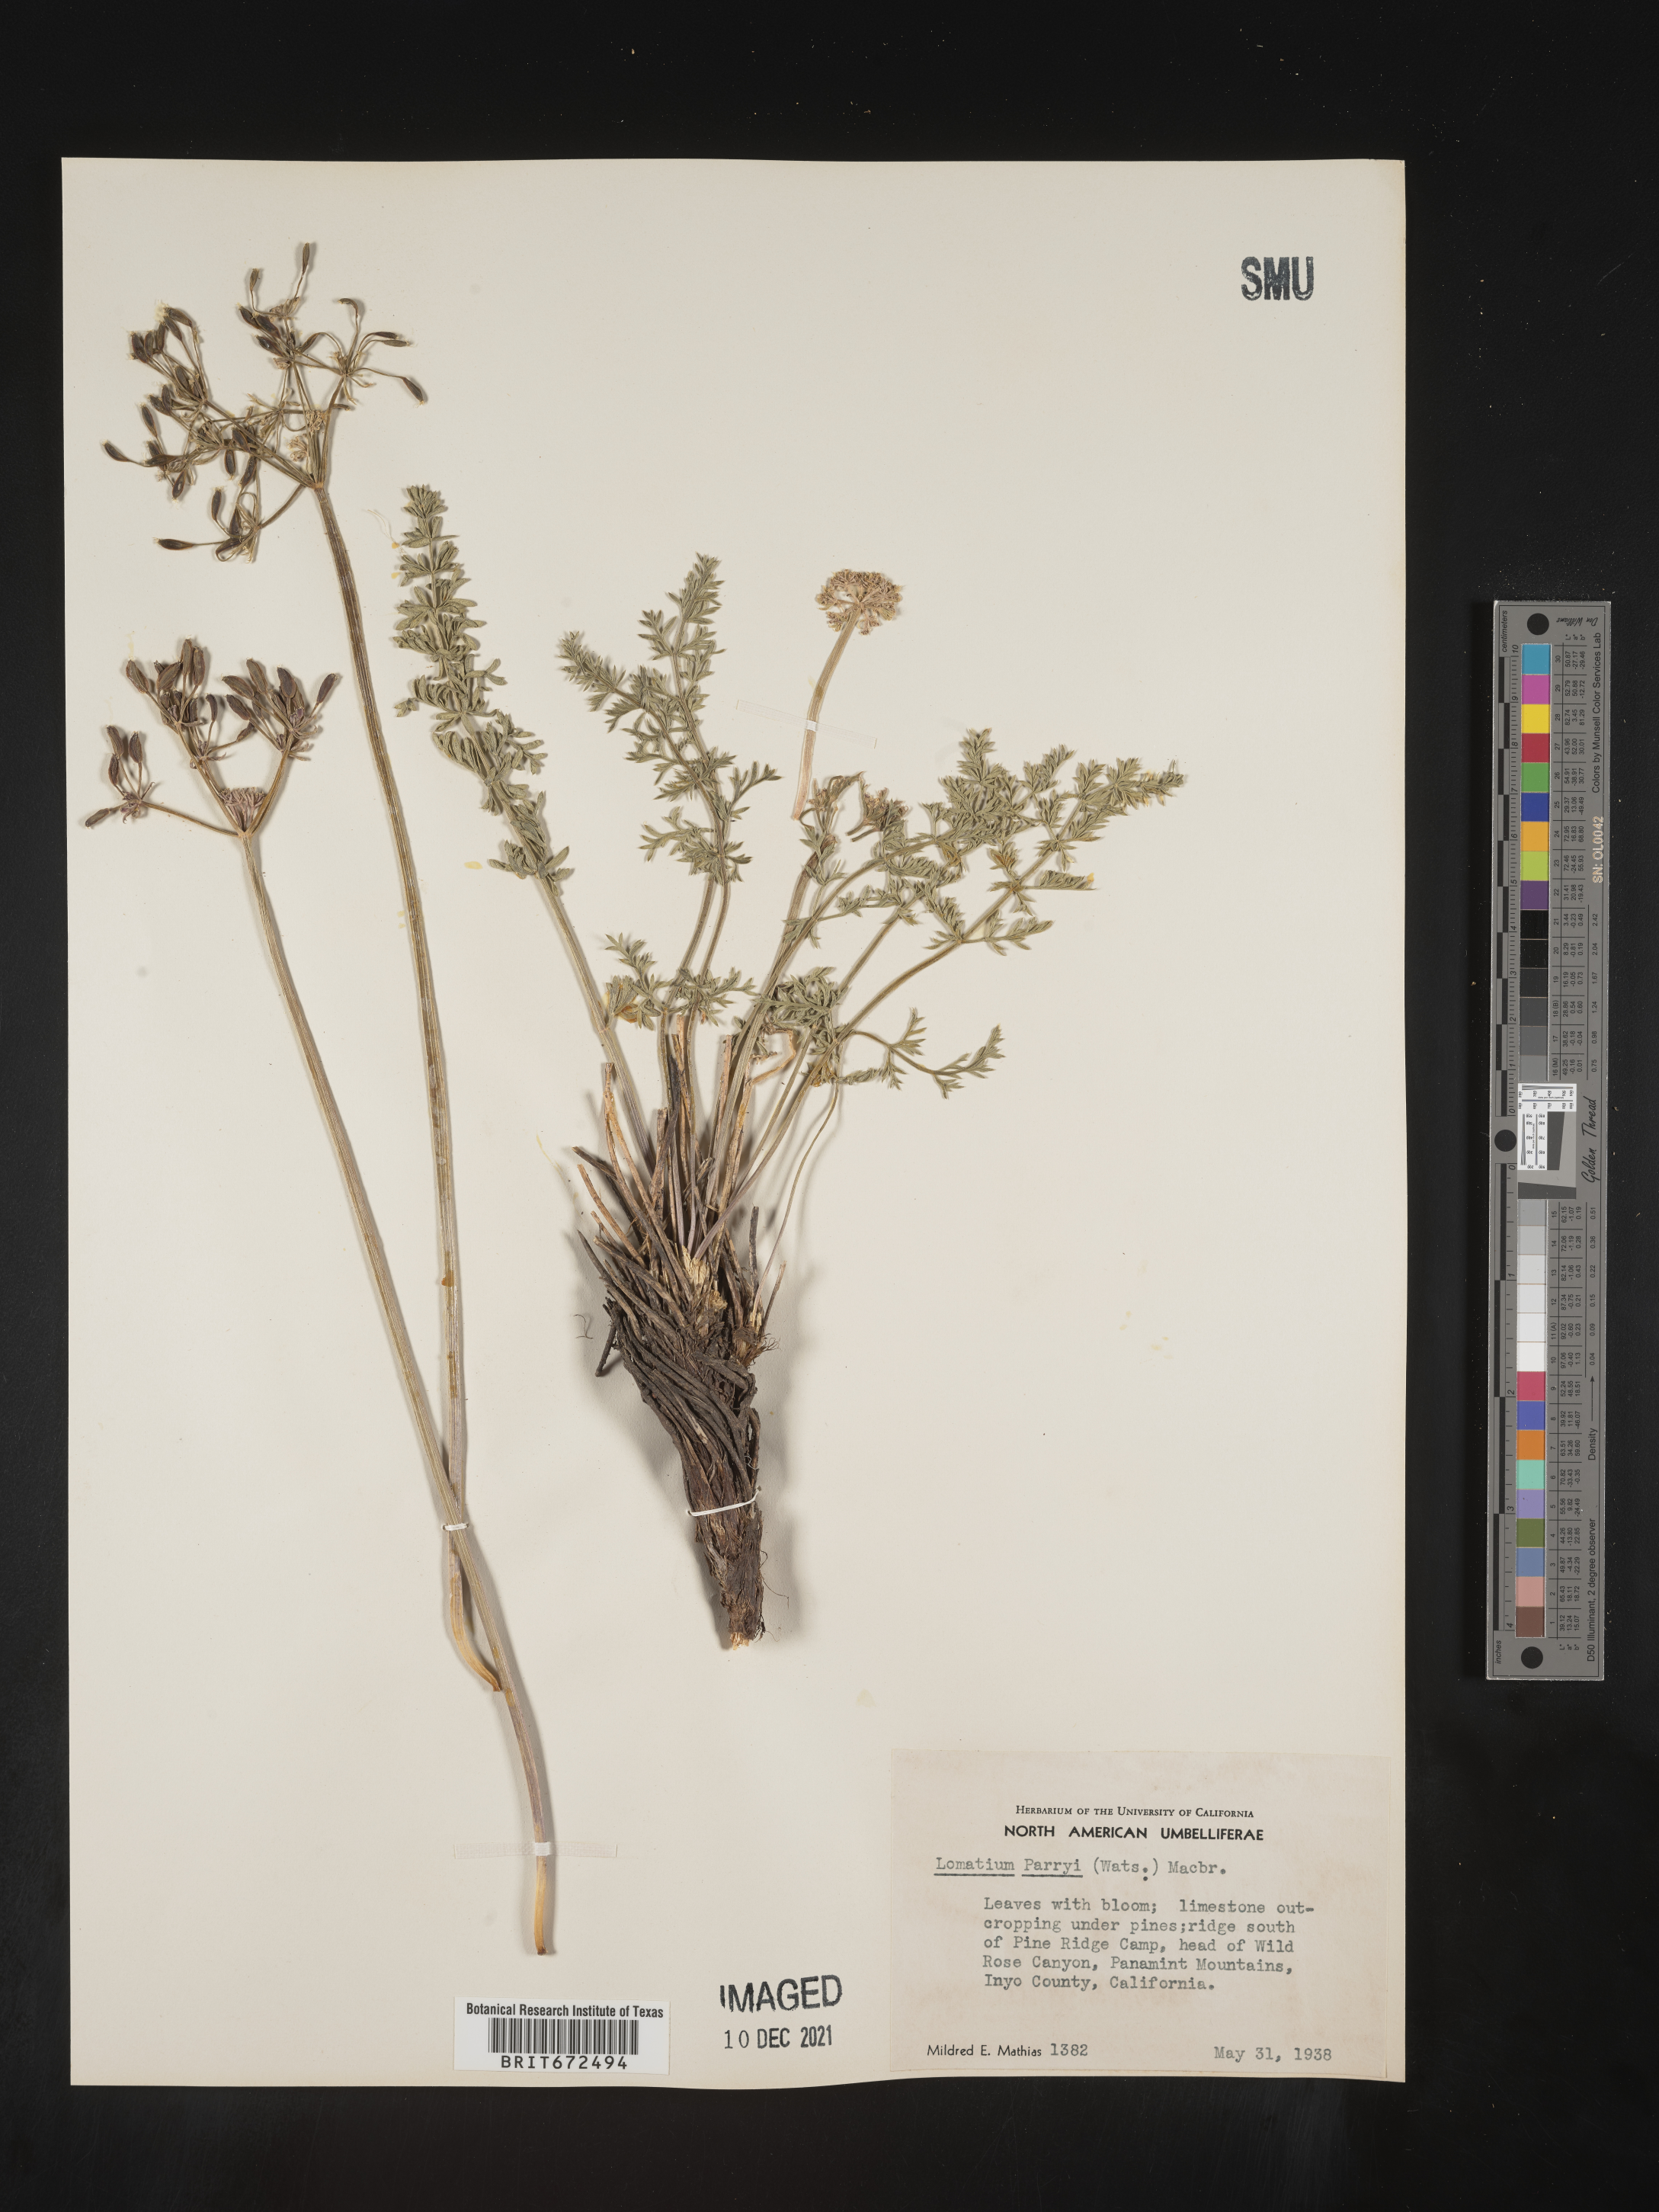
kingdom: Plantae
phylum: Tracheophyta
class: Magnoliopsida
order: Apiales
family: Apiaceae
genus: Lomatium
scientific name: Lomatium parryi
